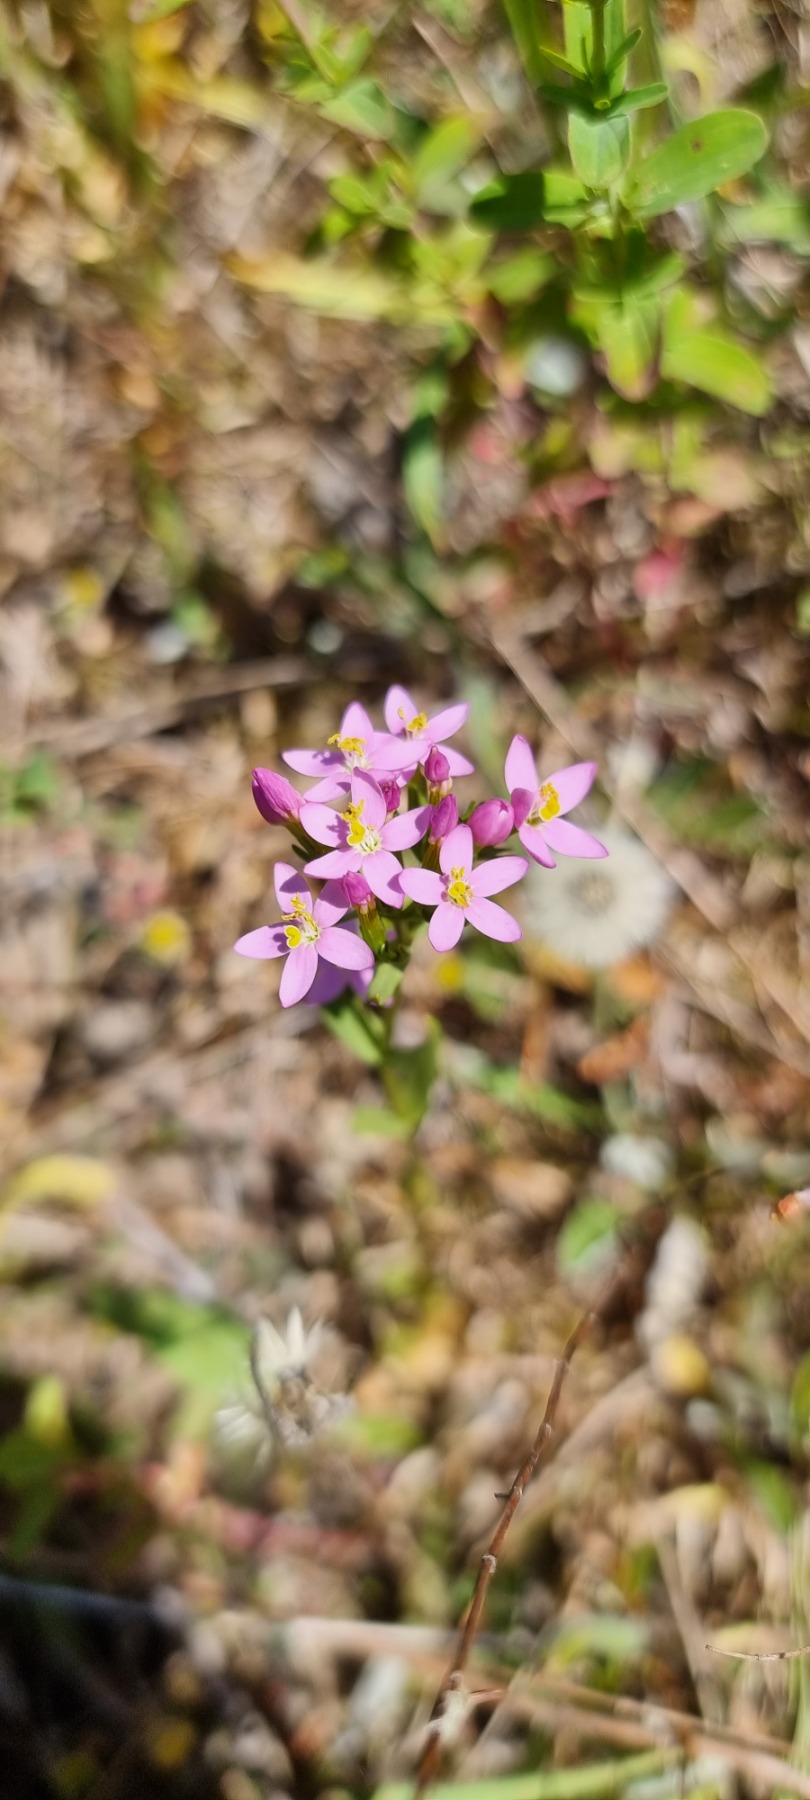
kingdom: Plantae
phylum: Tracheophyta
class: Magnoliopsida
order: Gentianales
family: Gentianaceae
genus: Centaurium
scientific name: Centaurium erythraea
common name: Mark-tusindgylden
